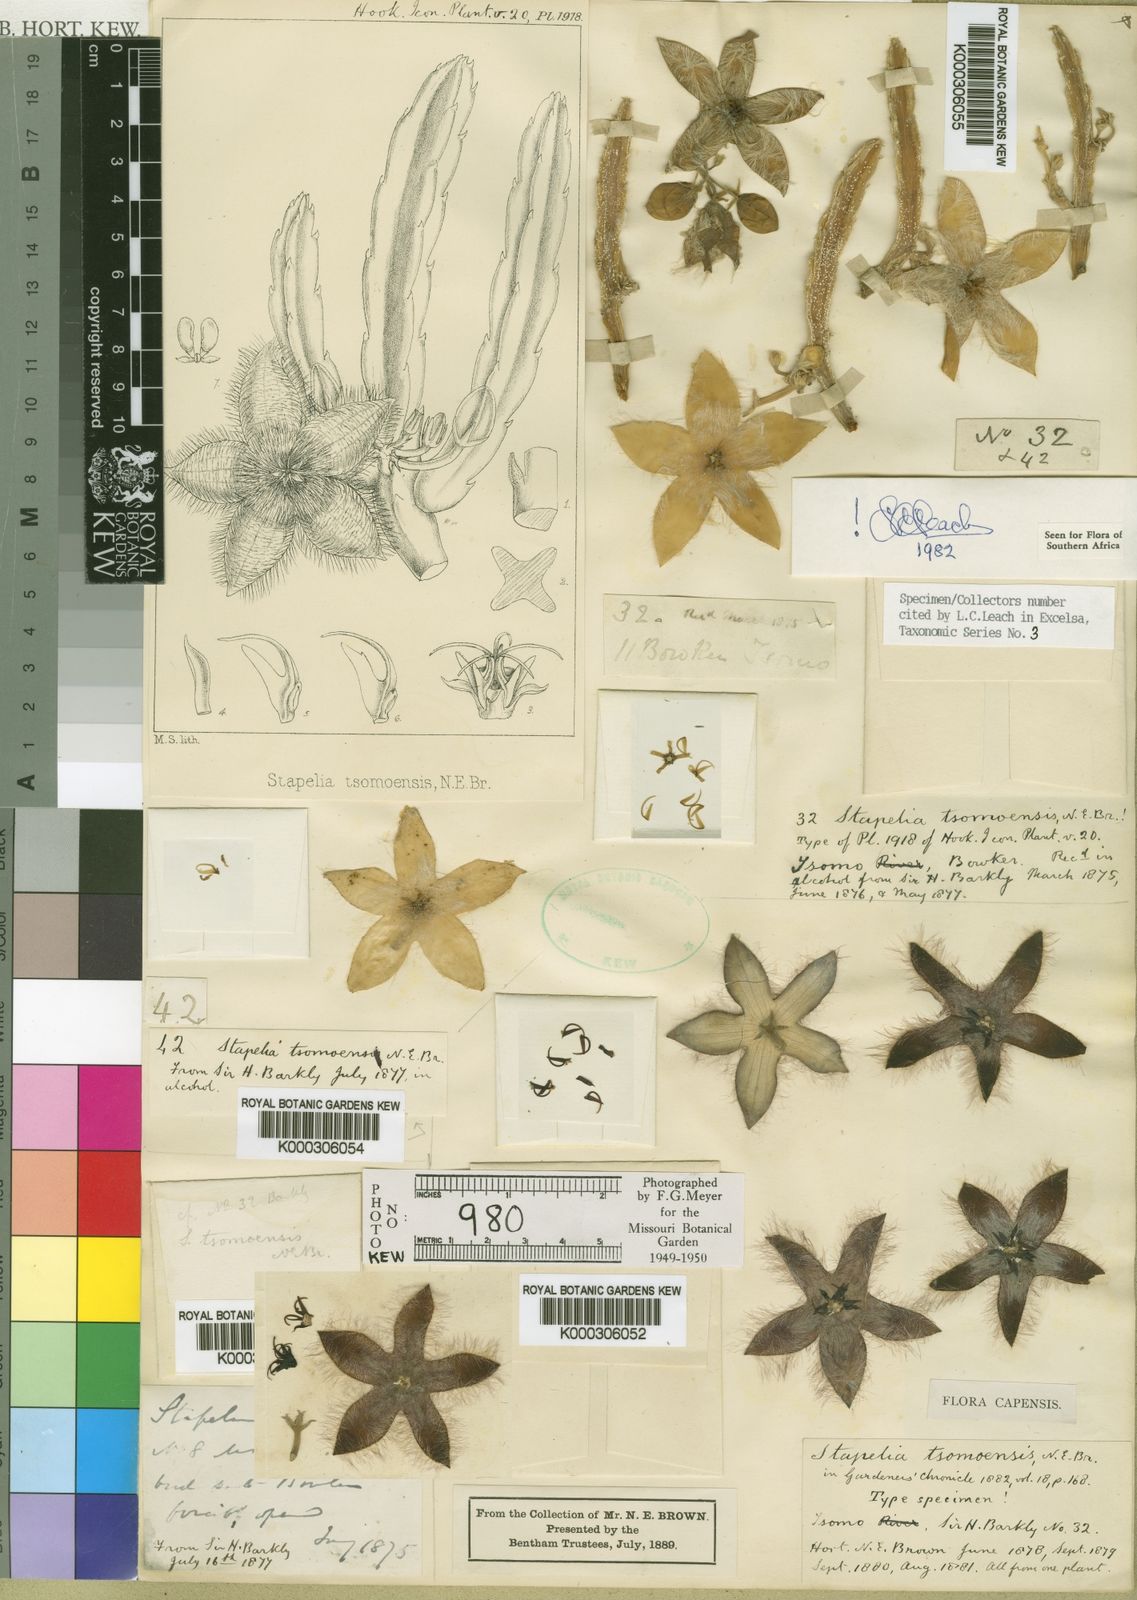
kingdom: Plantae
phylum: Tracheophyta
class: Magnoliopsida
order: Gentianales
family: Apocynaceae
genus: Ceropegia
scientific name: Ceropegia pulvinata
